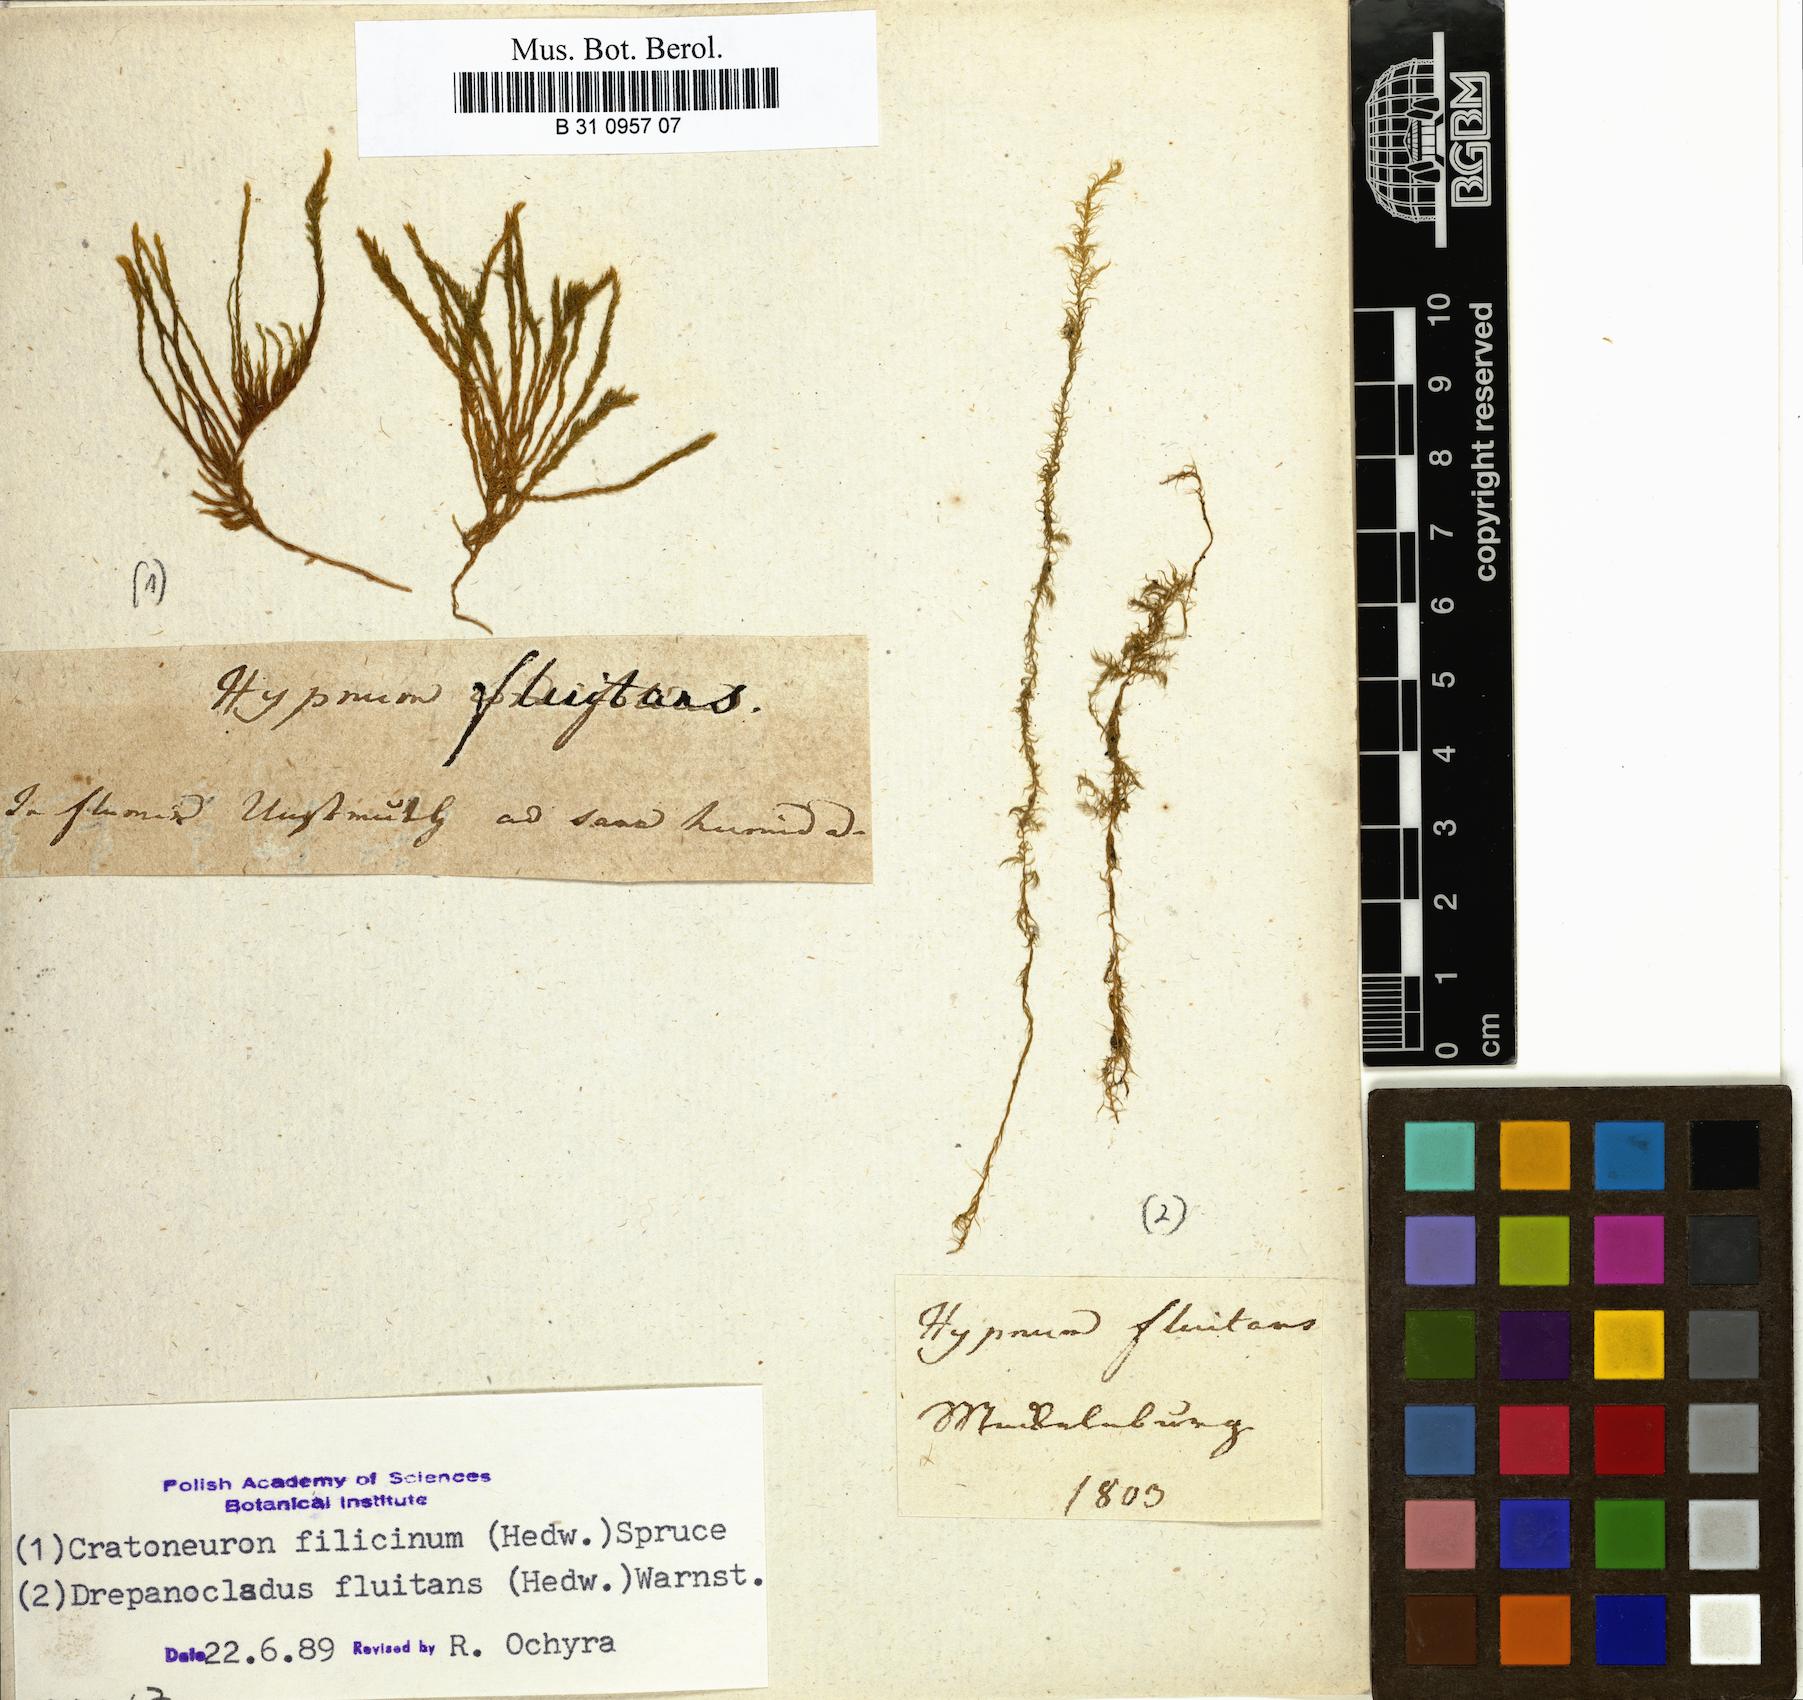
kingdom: Plantae
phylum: Bryophyta
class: Bryopsida
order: Hypnales
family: Calliergonaceae
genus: Warnstorfia
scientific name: Warnstorfia fluitans
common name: Floating hook moss
